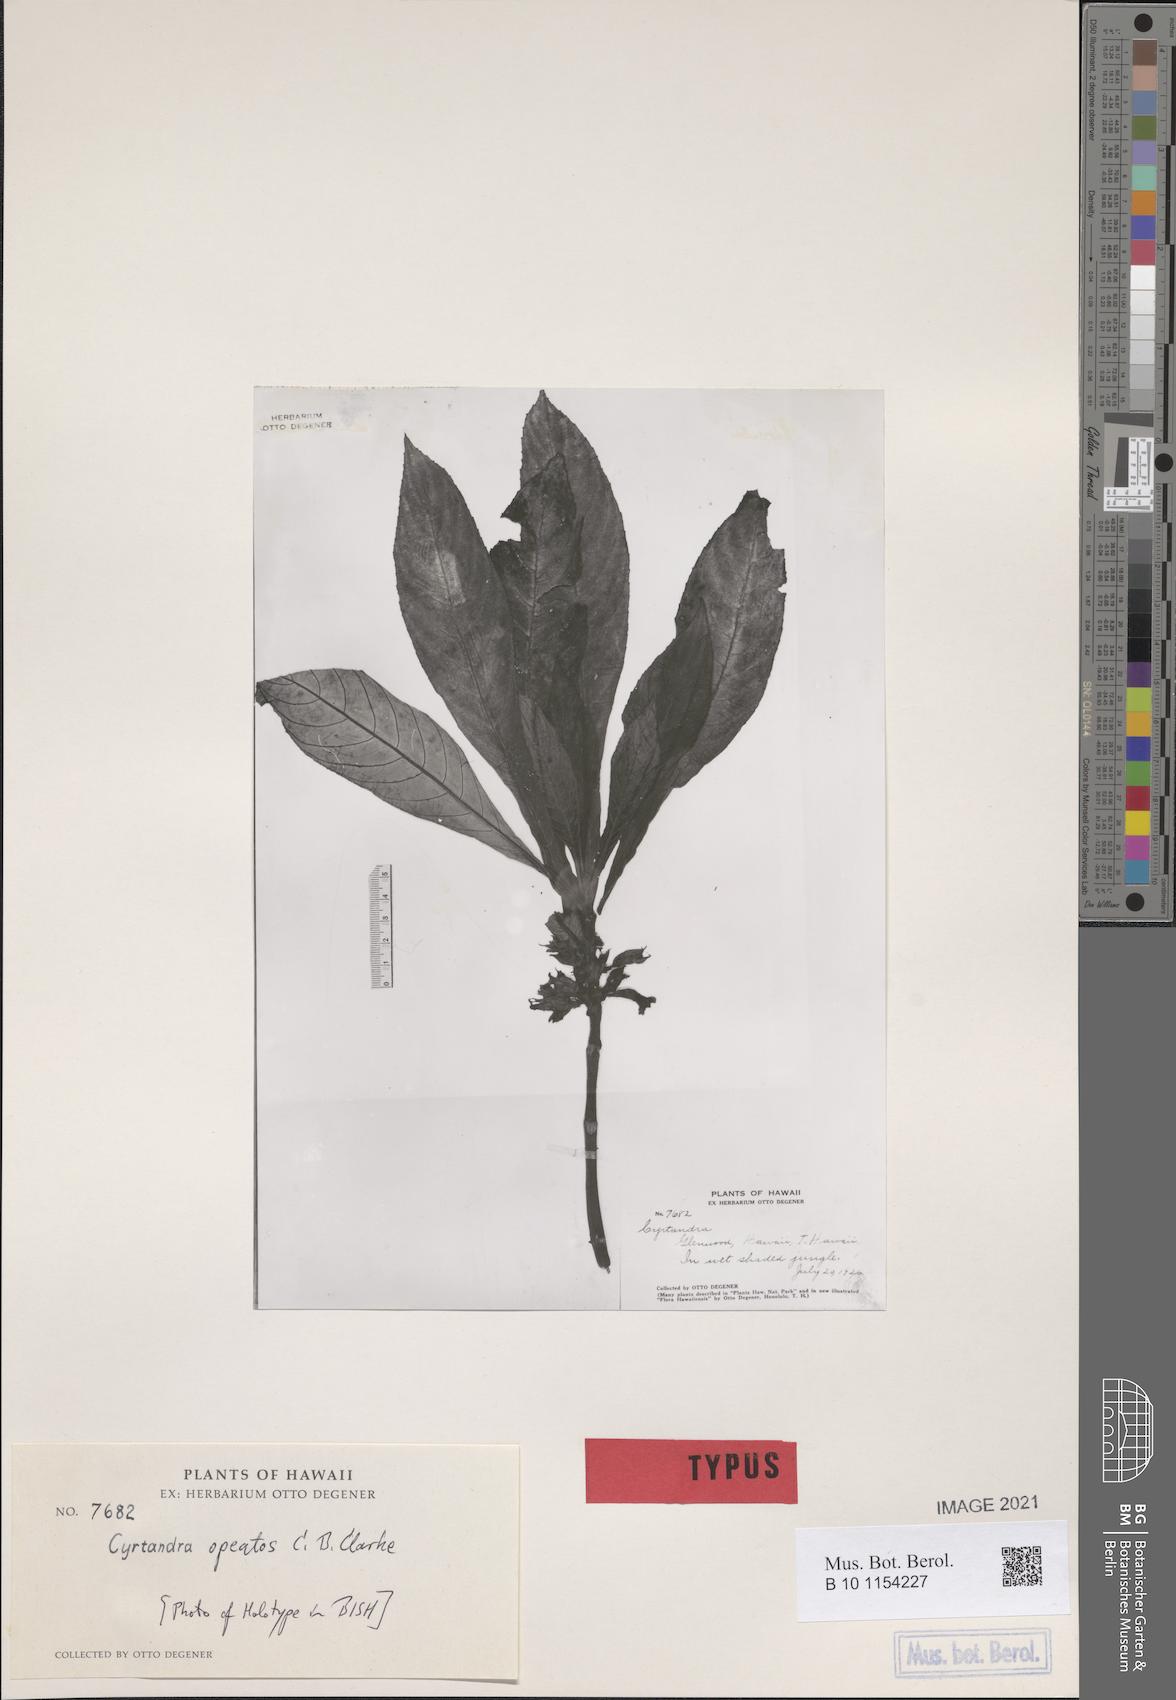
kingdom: Plantae
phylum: Tracheophyta
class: Magnoliopsida
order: Lamiales
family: Gesneriaceae
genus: Cyrtandra
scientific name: Cyrtandra hawaiensis
